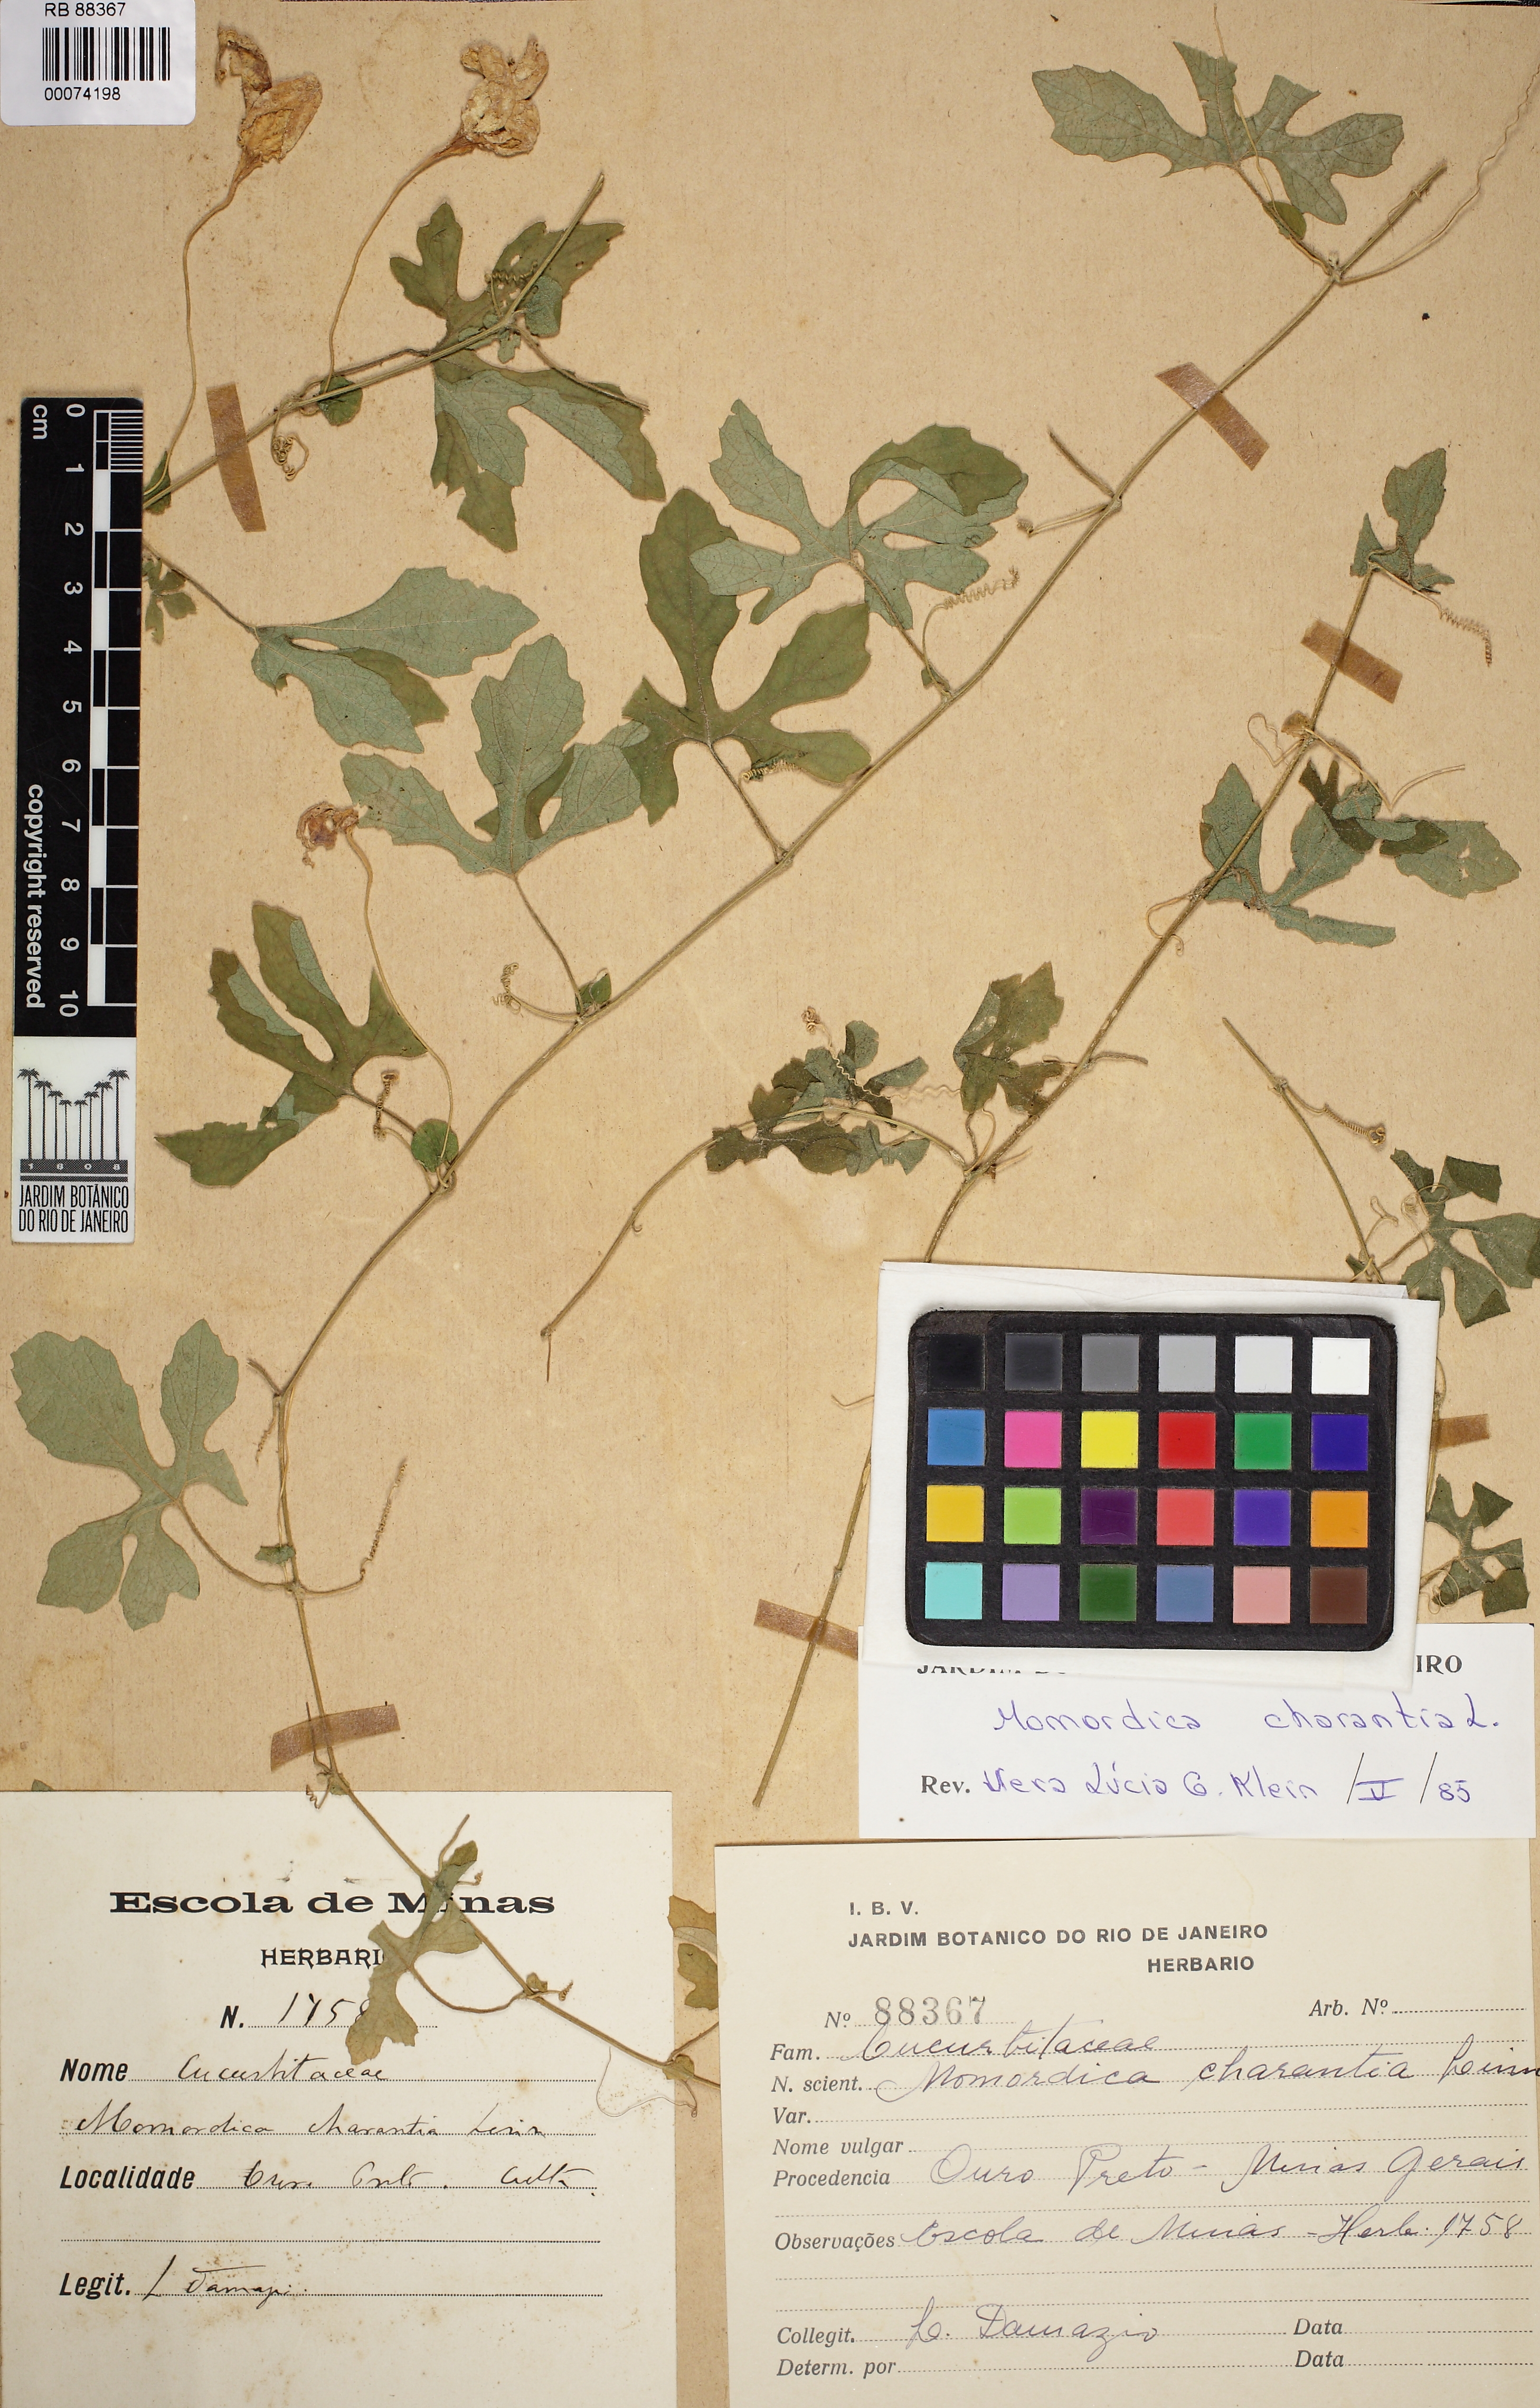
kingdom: Plantae
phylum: Tracheophyta
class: Magnoliopsida
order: Cucurbitales
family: Cucurbitaceae
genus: Momordica
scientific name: Momordica charantia
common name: Balsampear
